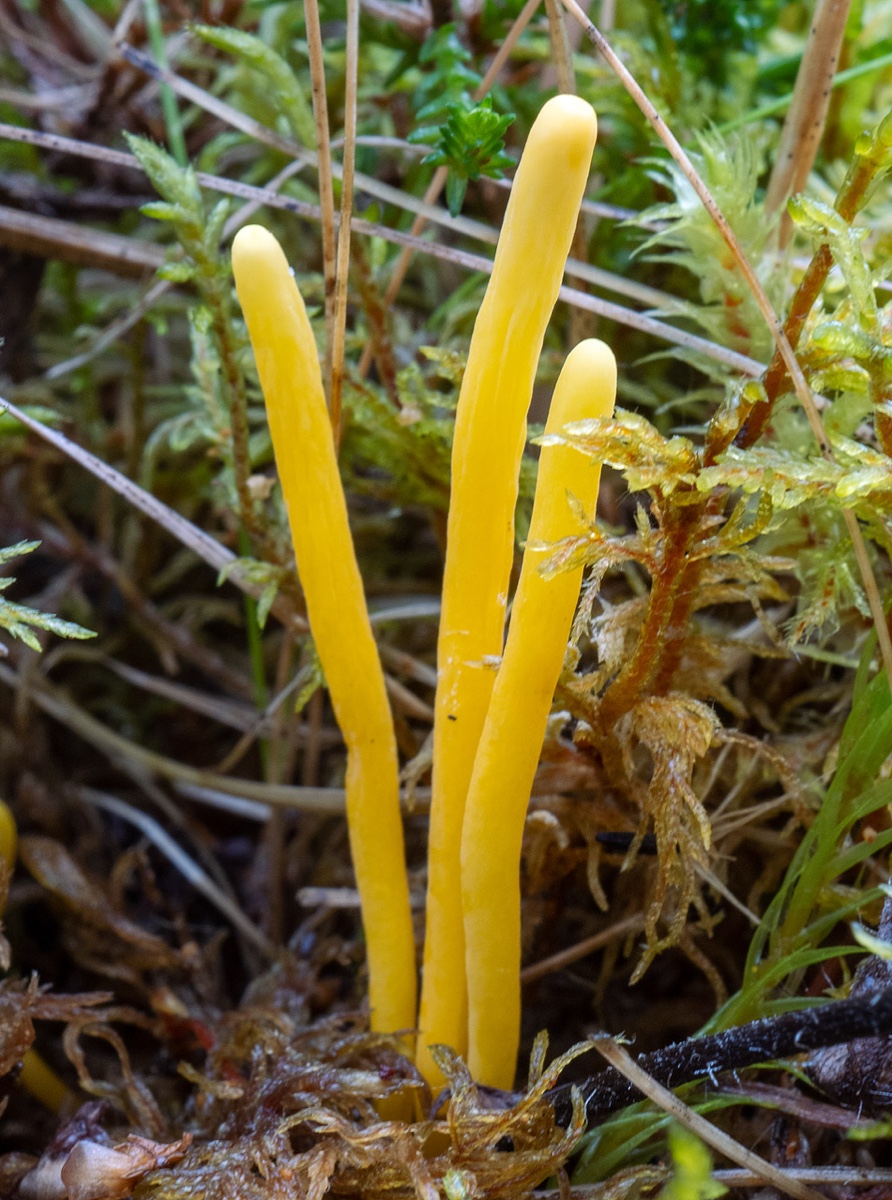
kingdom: Fungi
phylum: Basidiomycota
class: Agaricomycetes
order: Agaricales
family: Clavariaceae
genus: Clavulinopsis
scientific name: Clavulinopsis helvola
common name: orangegul køllesvamp
